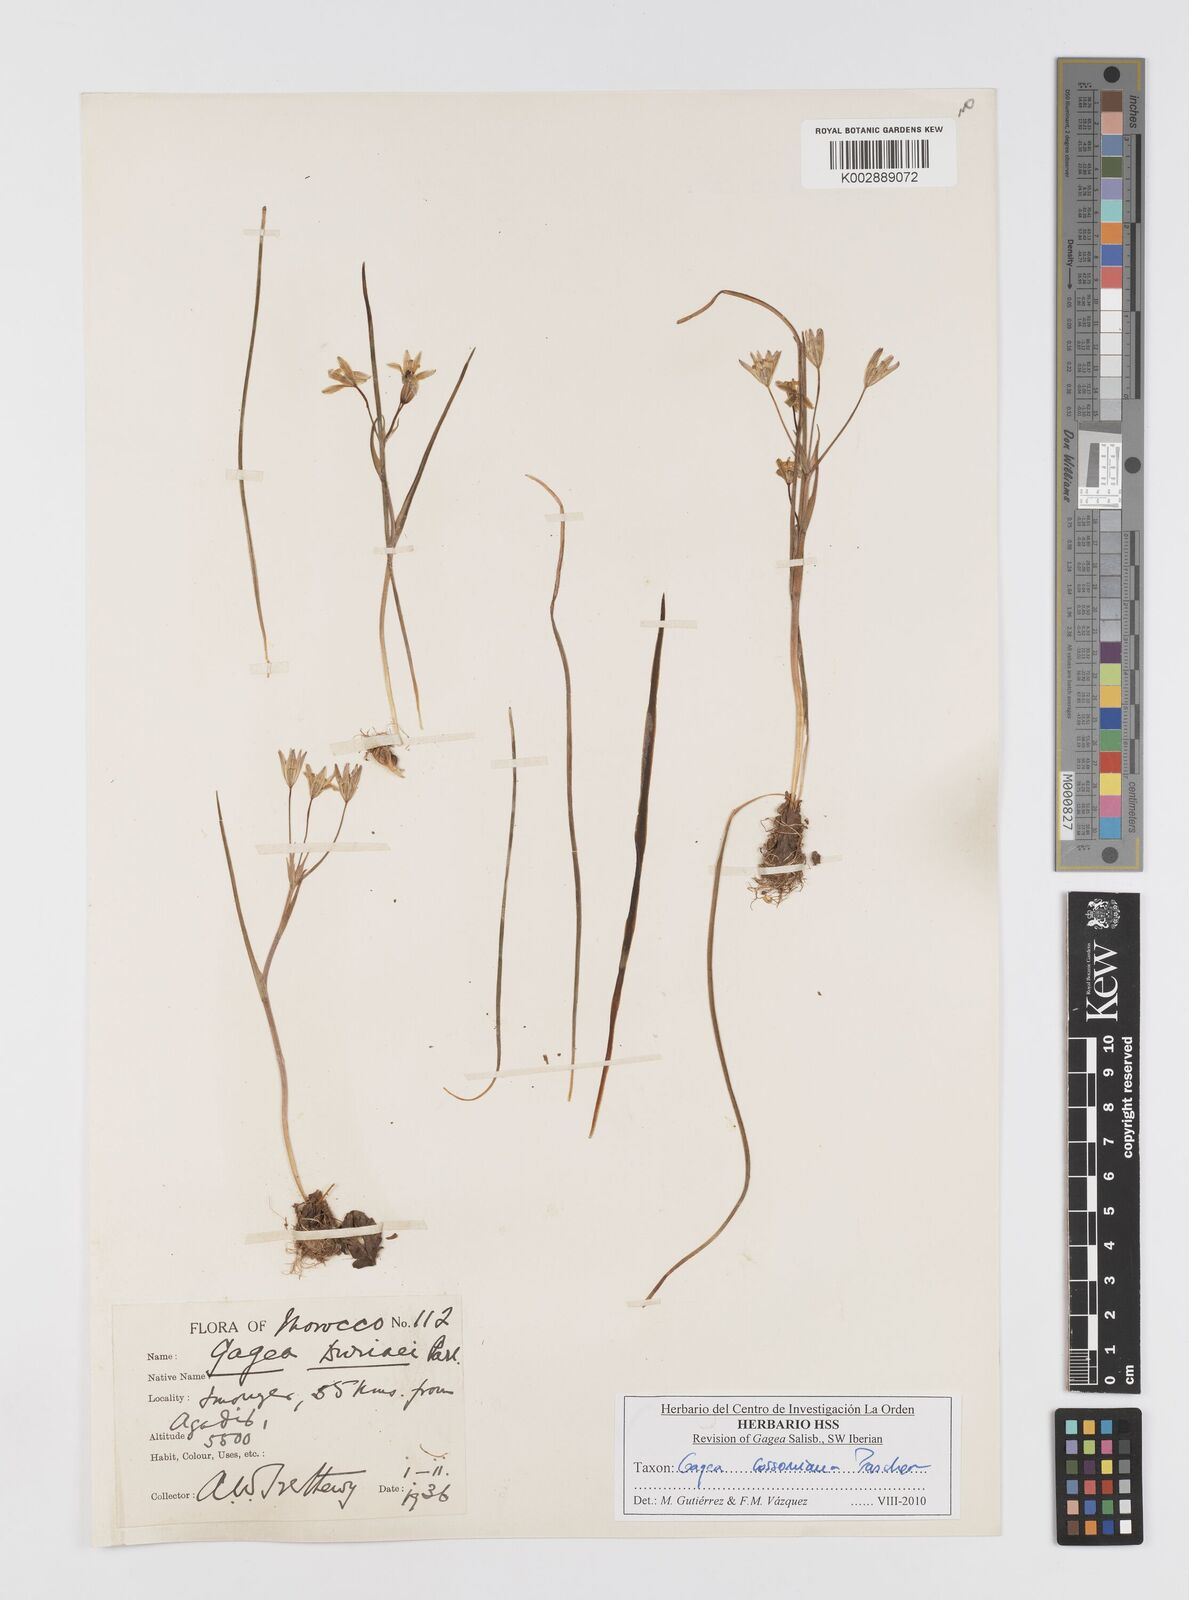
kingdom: Plantae
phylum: Tracheophyta
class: Liliopsida
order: Liliales
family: Liliaceae
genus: Gagea
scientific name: Gagea algeriensis
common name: Algerian gagea
